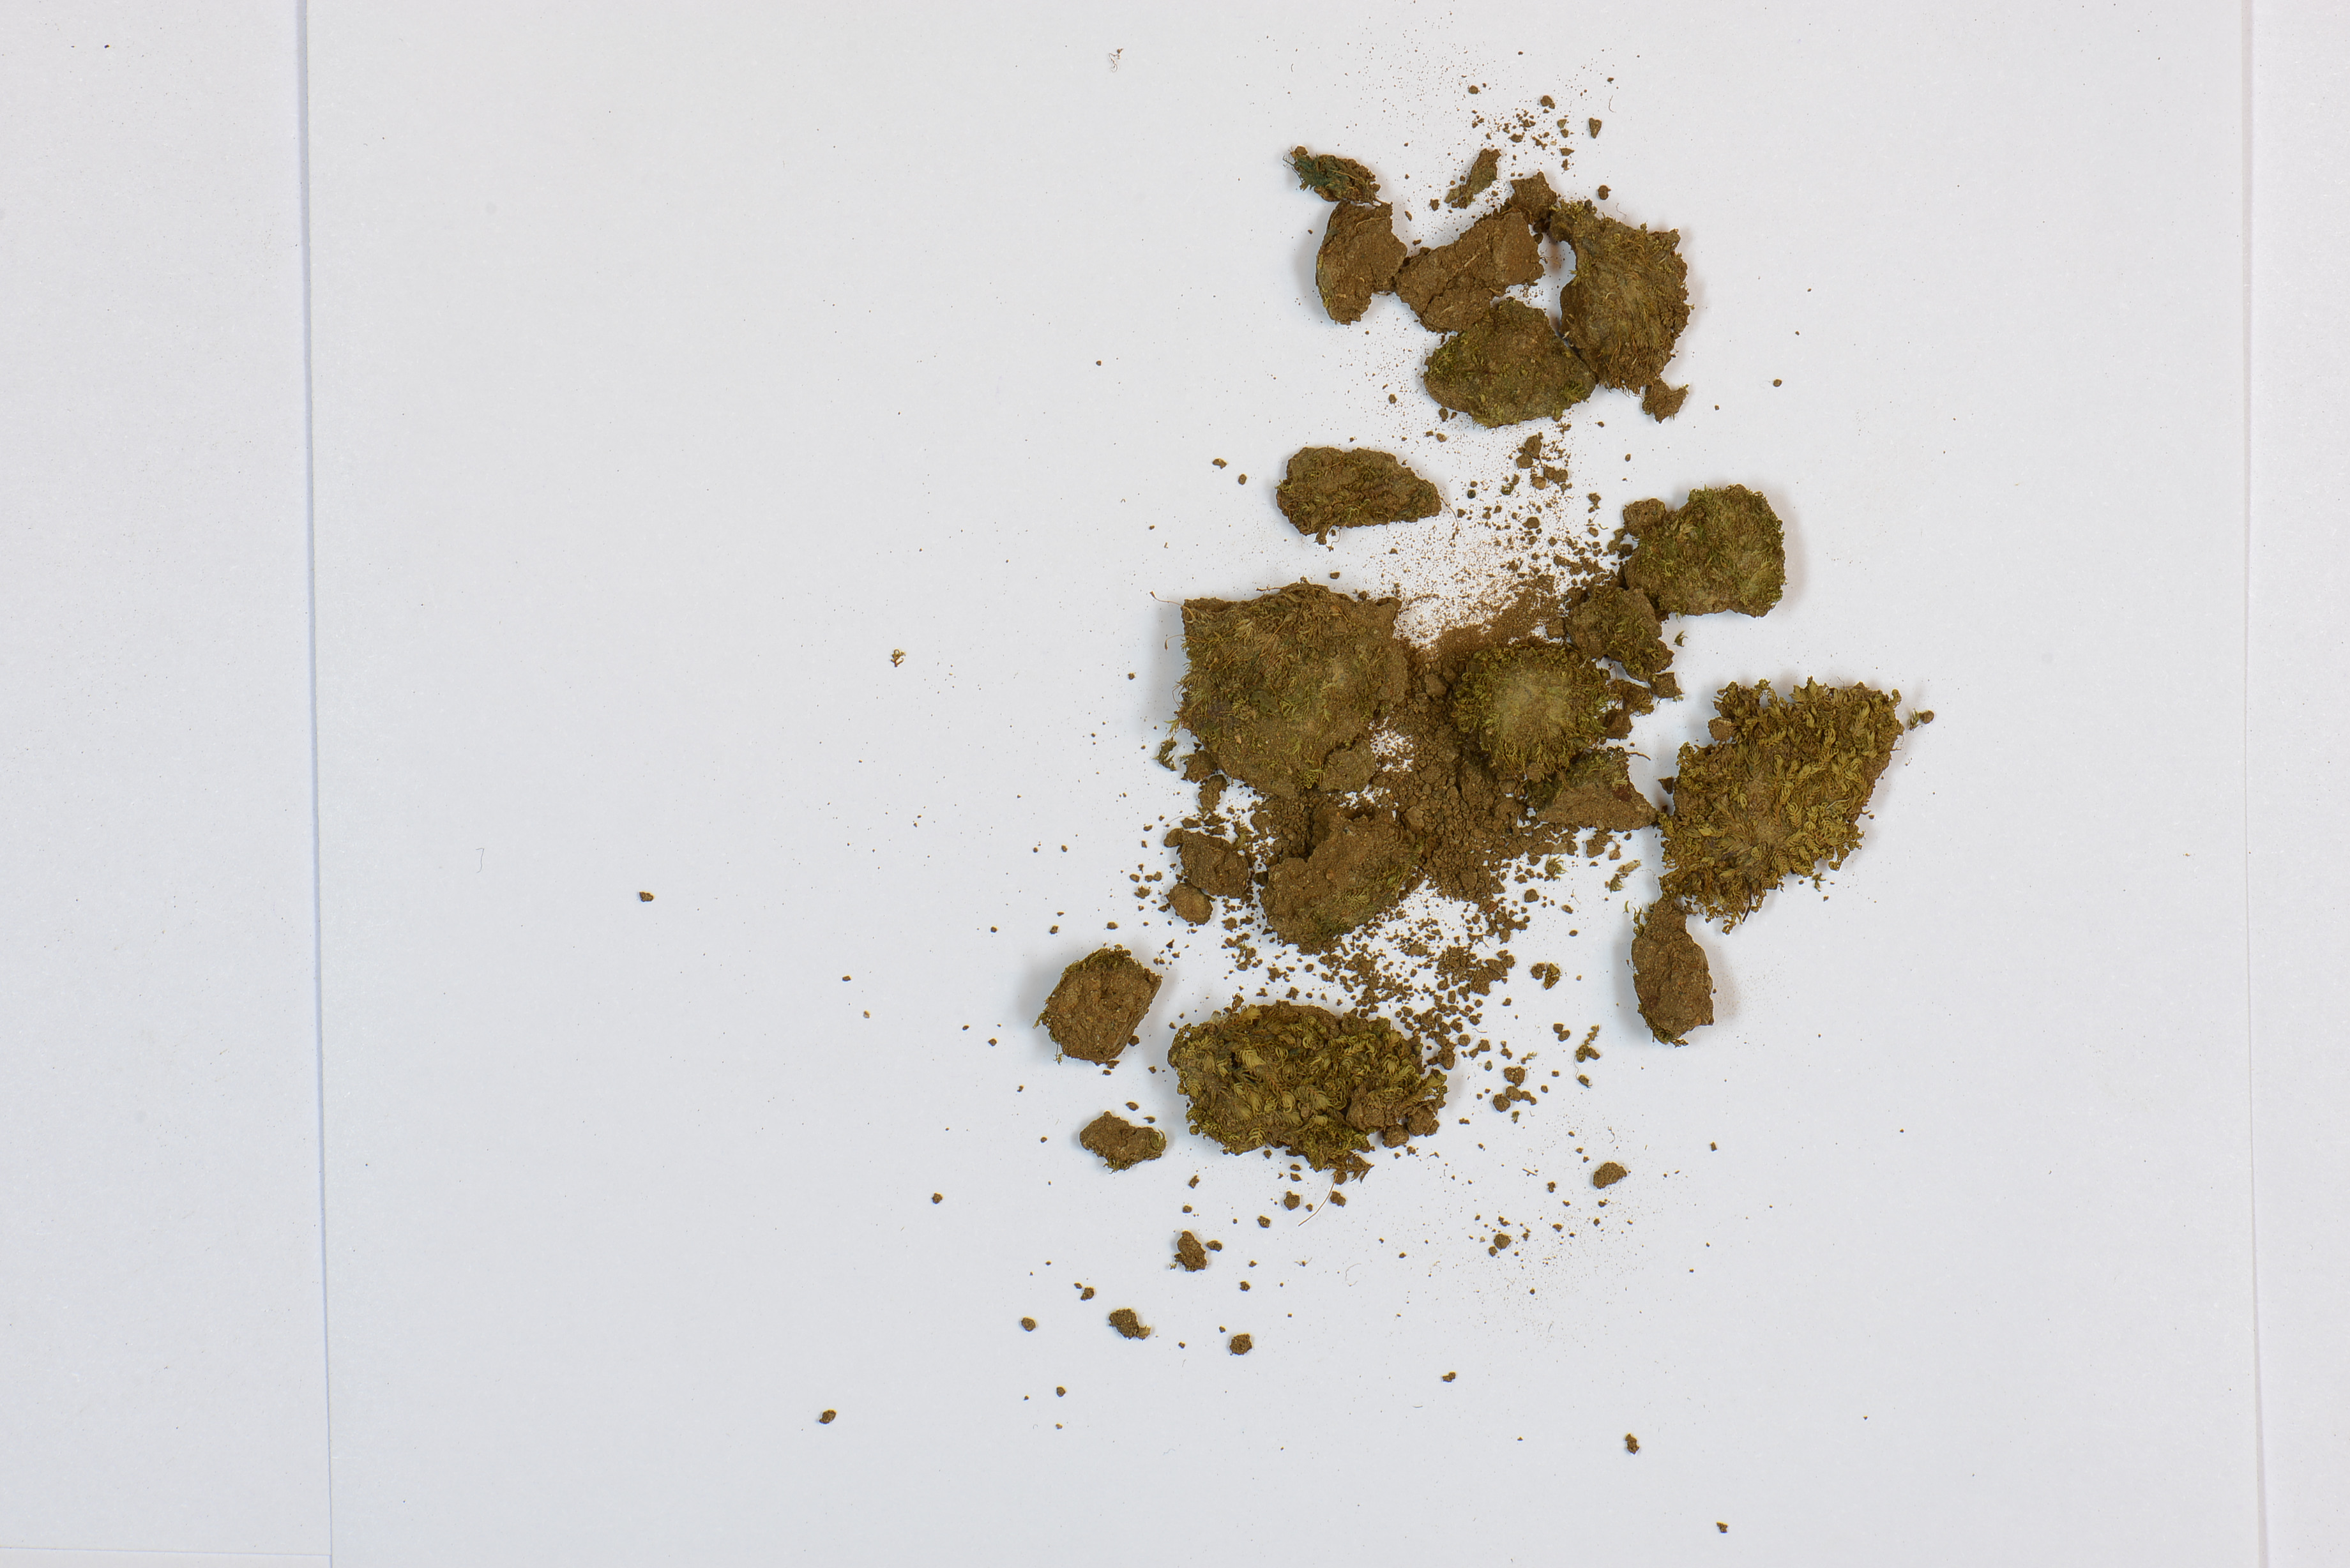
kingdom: Plantae
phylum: Bryophyta
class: Bryopsida
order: Dicranales
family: Fissidentaceae
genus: Fissidens
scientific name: Fissidens crenulatus
